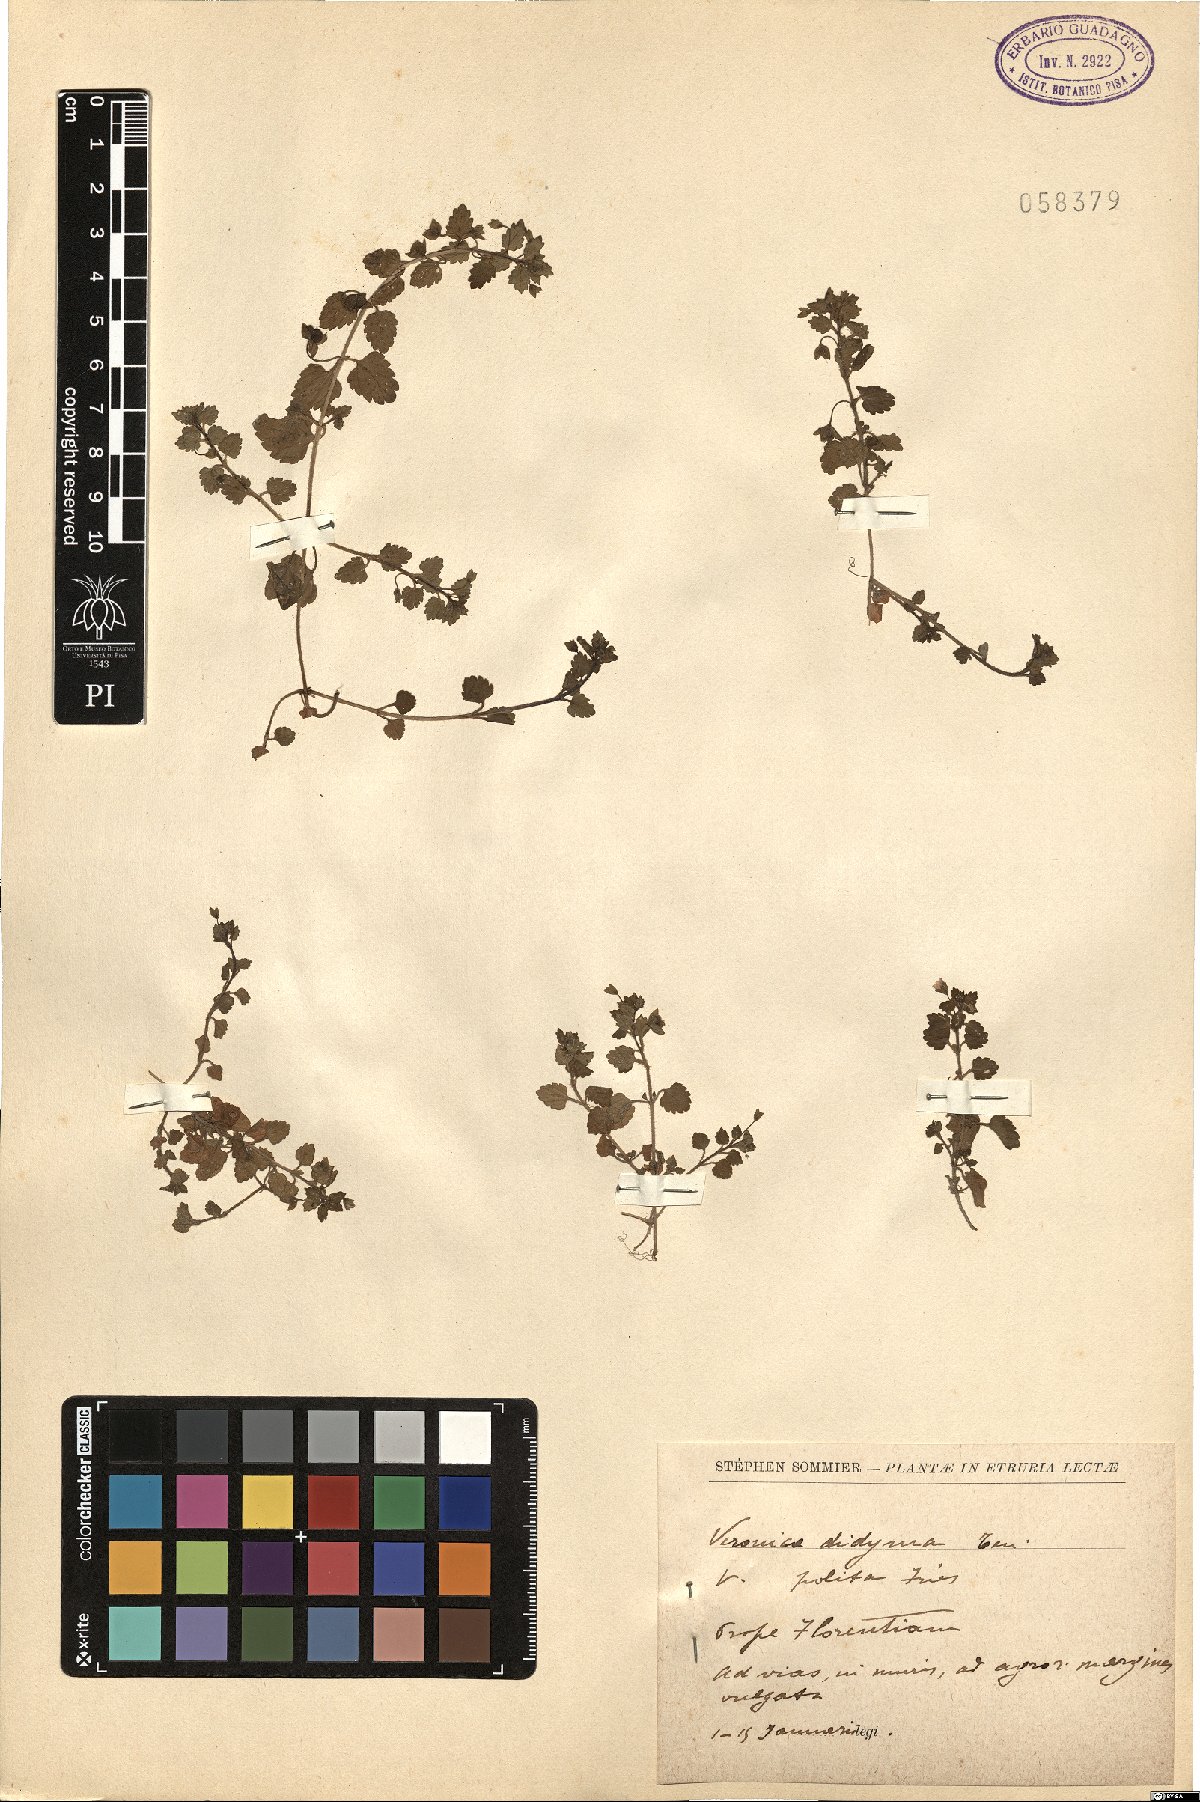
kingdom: Plantae
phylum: Tracheophyta
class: Magnoliopsida
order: Lamiales
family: Plantaginaceae
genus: Veronica
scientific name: Veronica polita
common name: Grey field-speedwell
